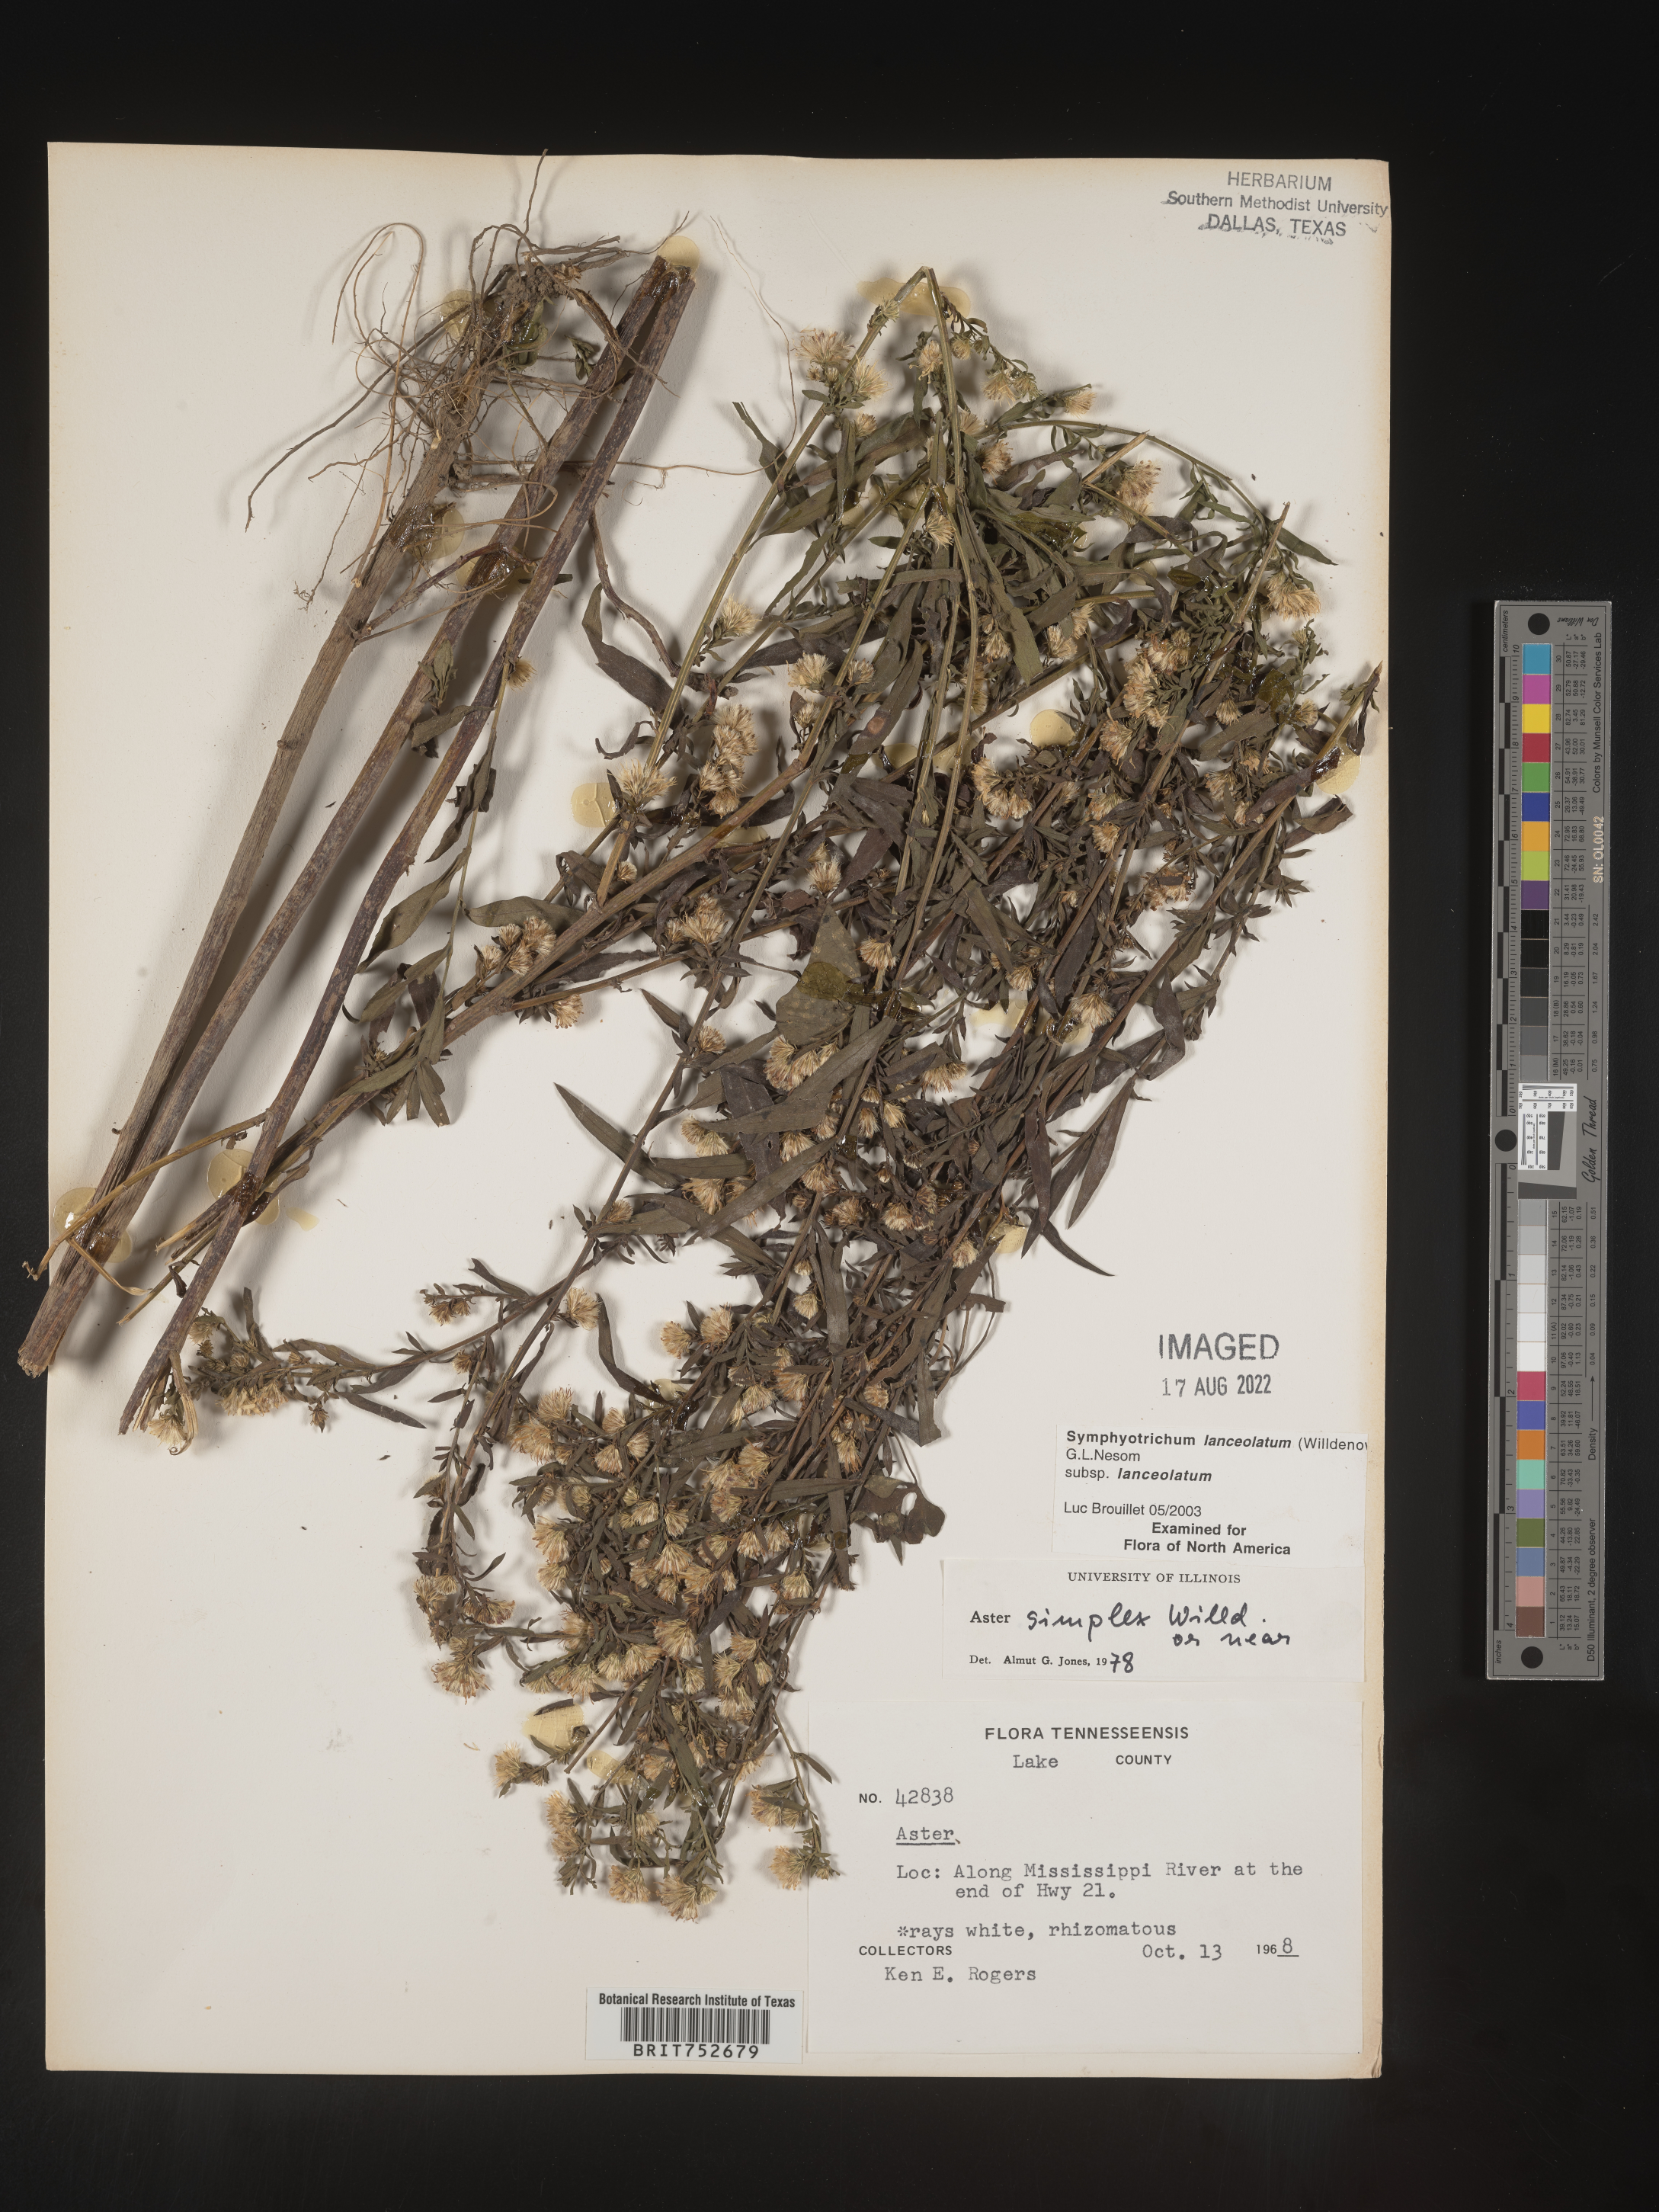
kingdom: Plantae
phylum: Tracheophyta
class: Magnoliopsida
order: Asterales
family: Asteraceae
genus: Symphyotrichum
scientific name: Symphyotrichum lanceolatum
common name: Panicled aster
